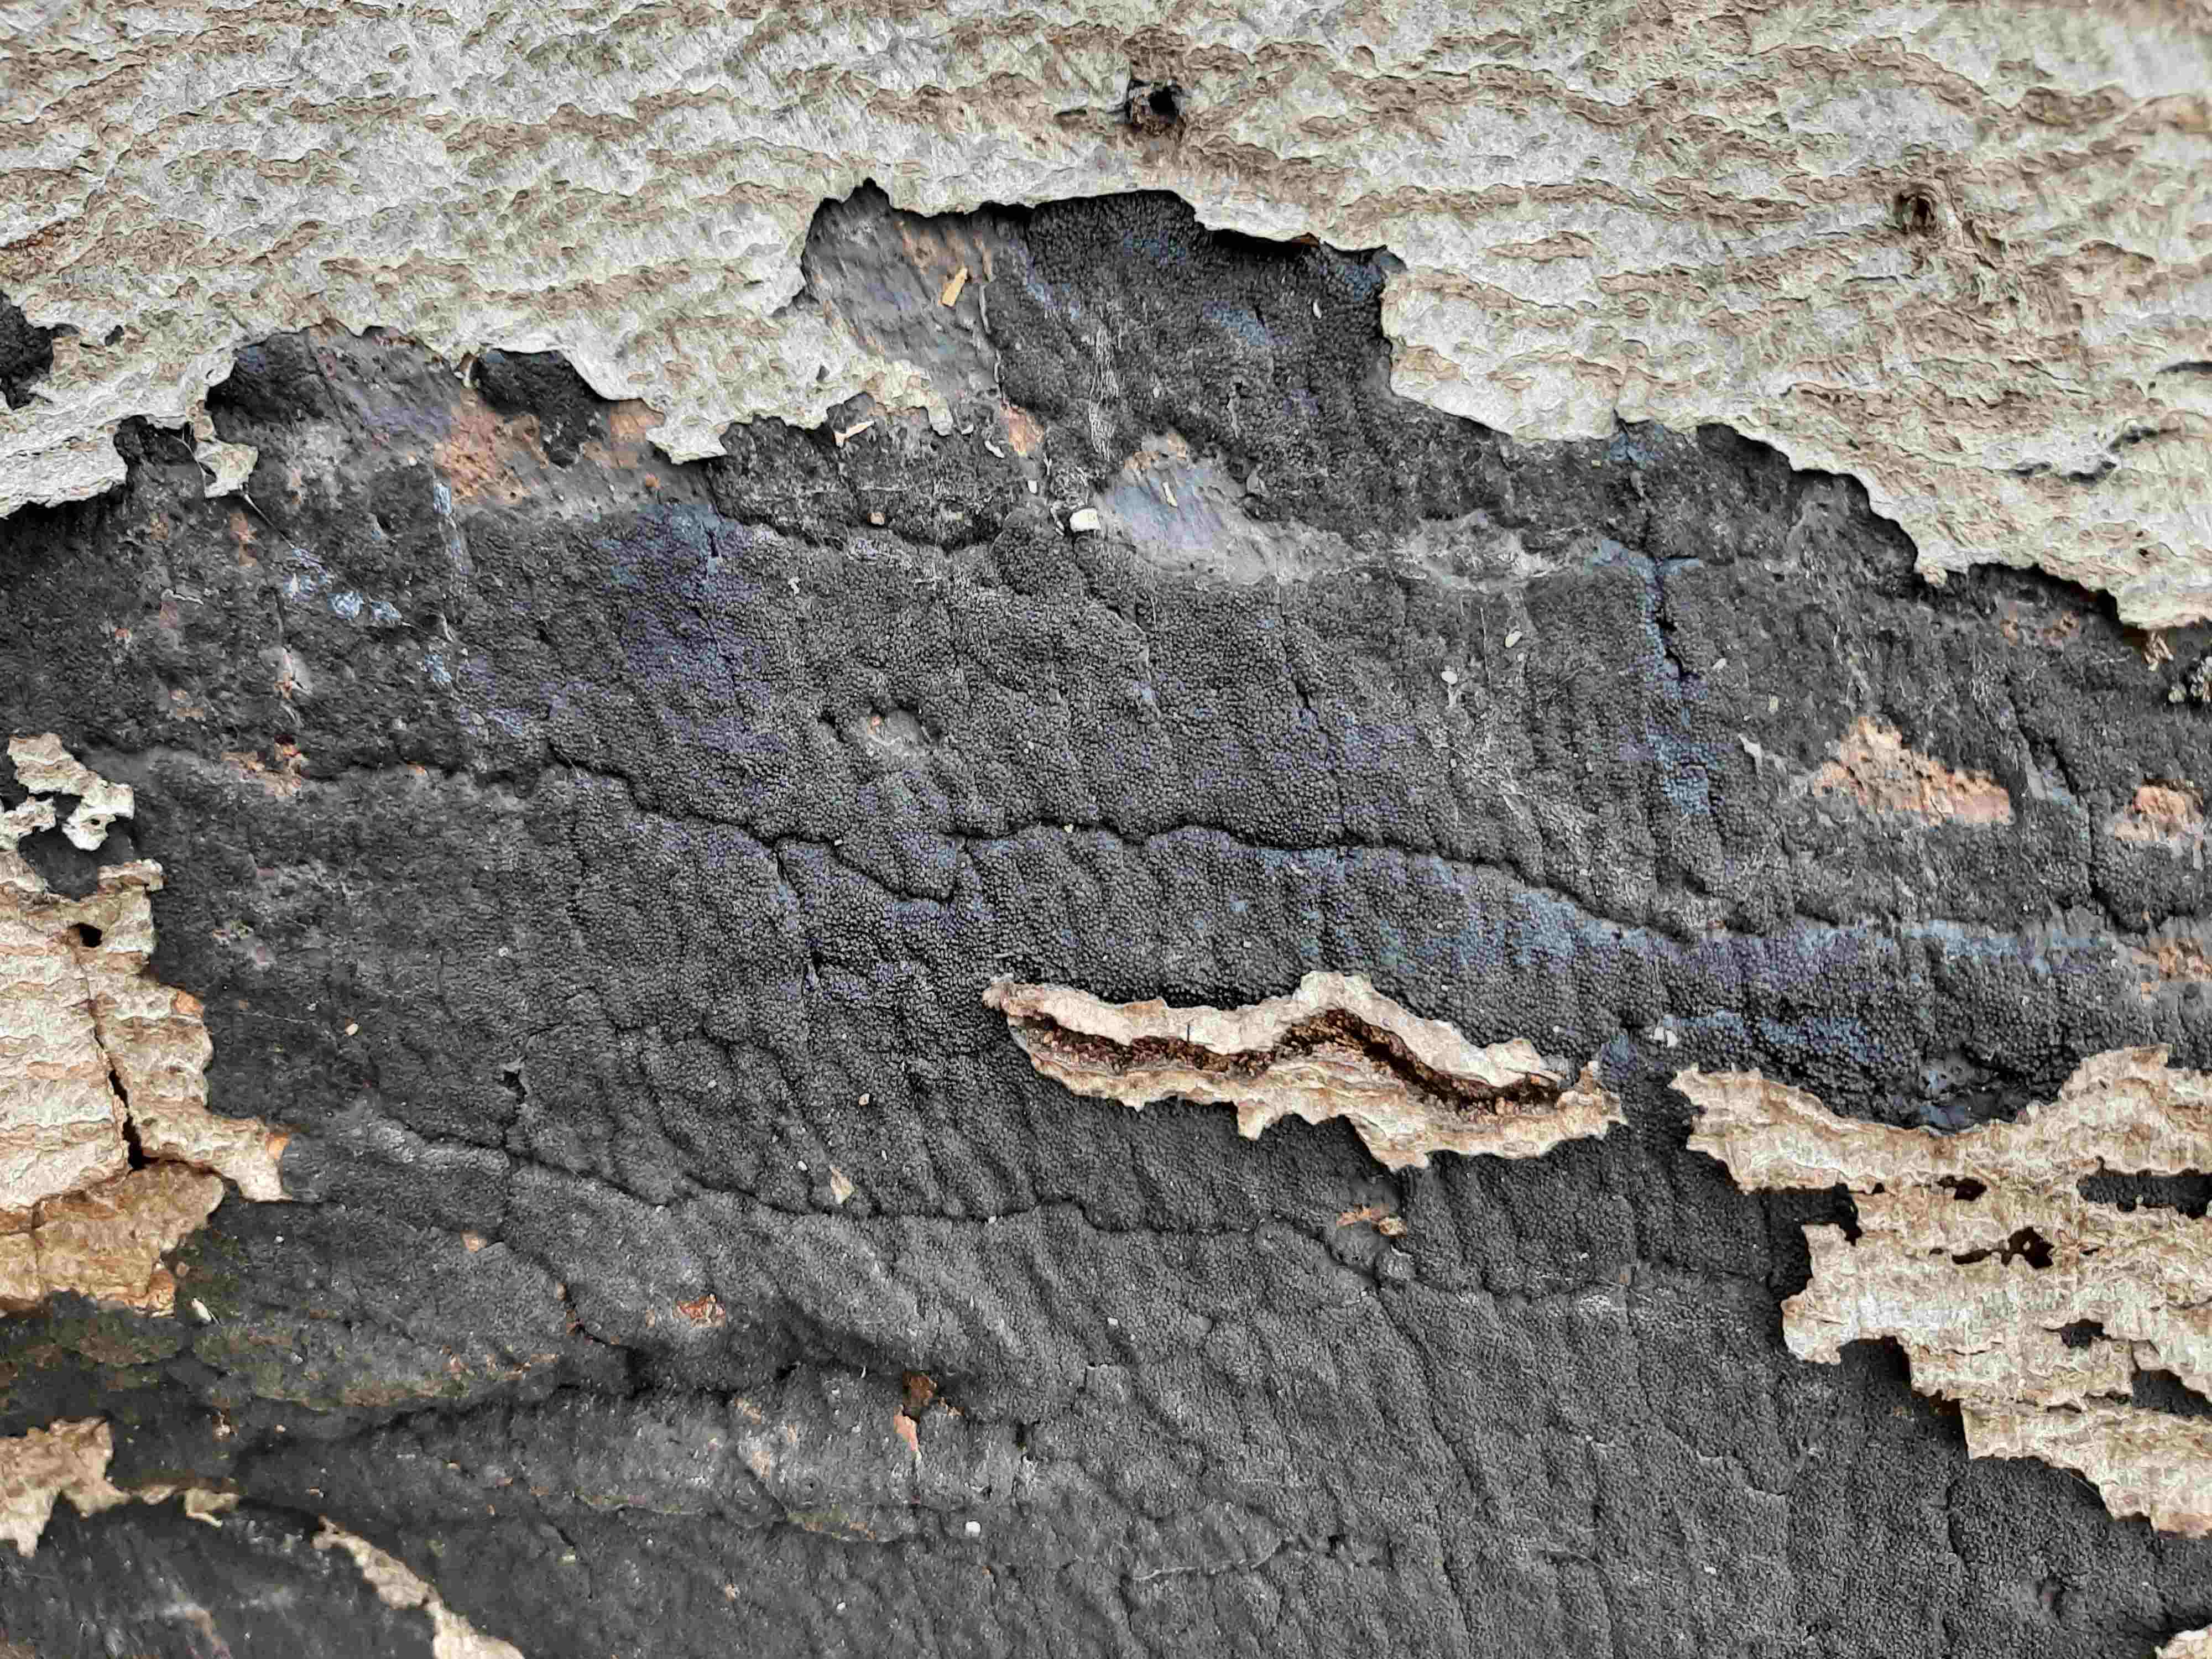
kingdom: Fungi
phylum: Ascomycota
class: Sordariomycetes
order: Xylariales
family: Diatrypaceae
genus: Eutypa
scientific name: Eutypa spinosa
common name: grov kulskorpe
